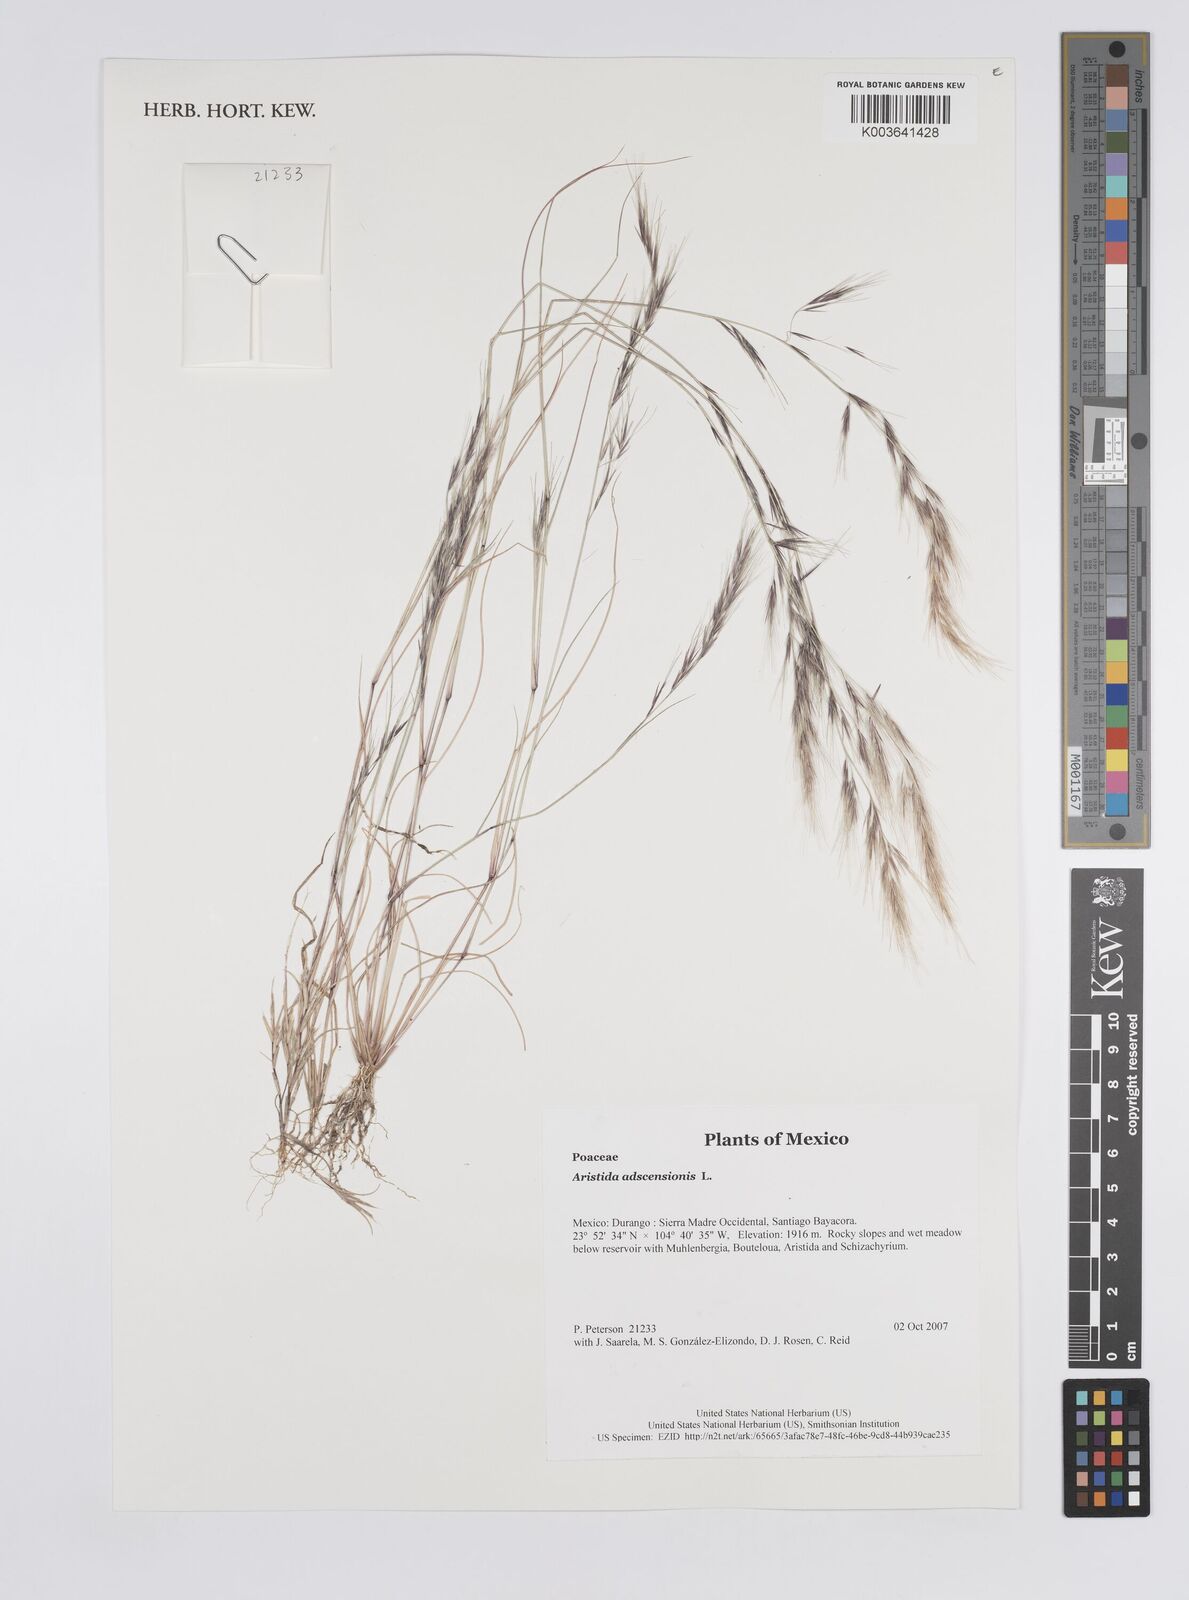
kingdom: Plantae
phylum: Tracheophyta
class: Liliopsida
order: Poales
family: Poaceae
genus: Aristida
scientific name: Aristida adscensionis
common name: Sixweeks threeawn
